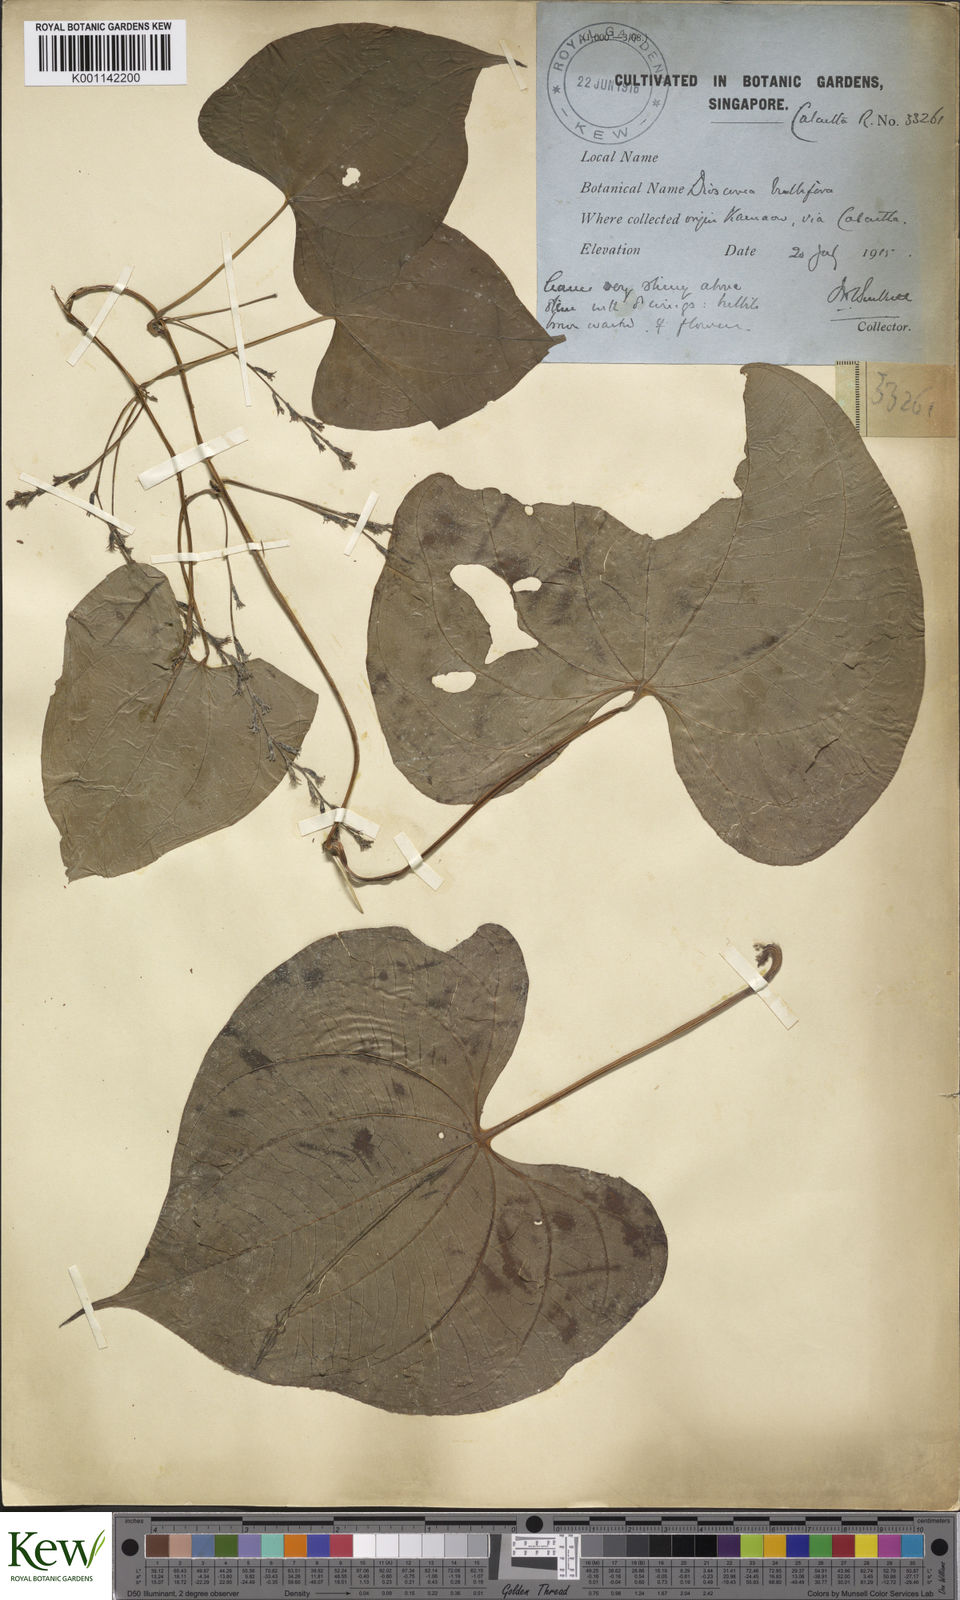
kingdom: Plantae
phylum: Tracheophyta
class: Liliopsida
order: Dioscoreales
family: Dioscoreaceae
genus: Dioscorea
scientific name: Dioscorea bulbifera
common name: Air yam
